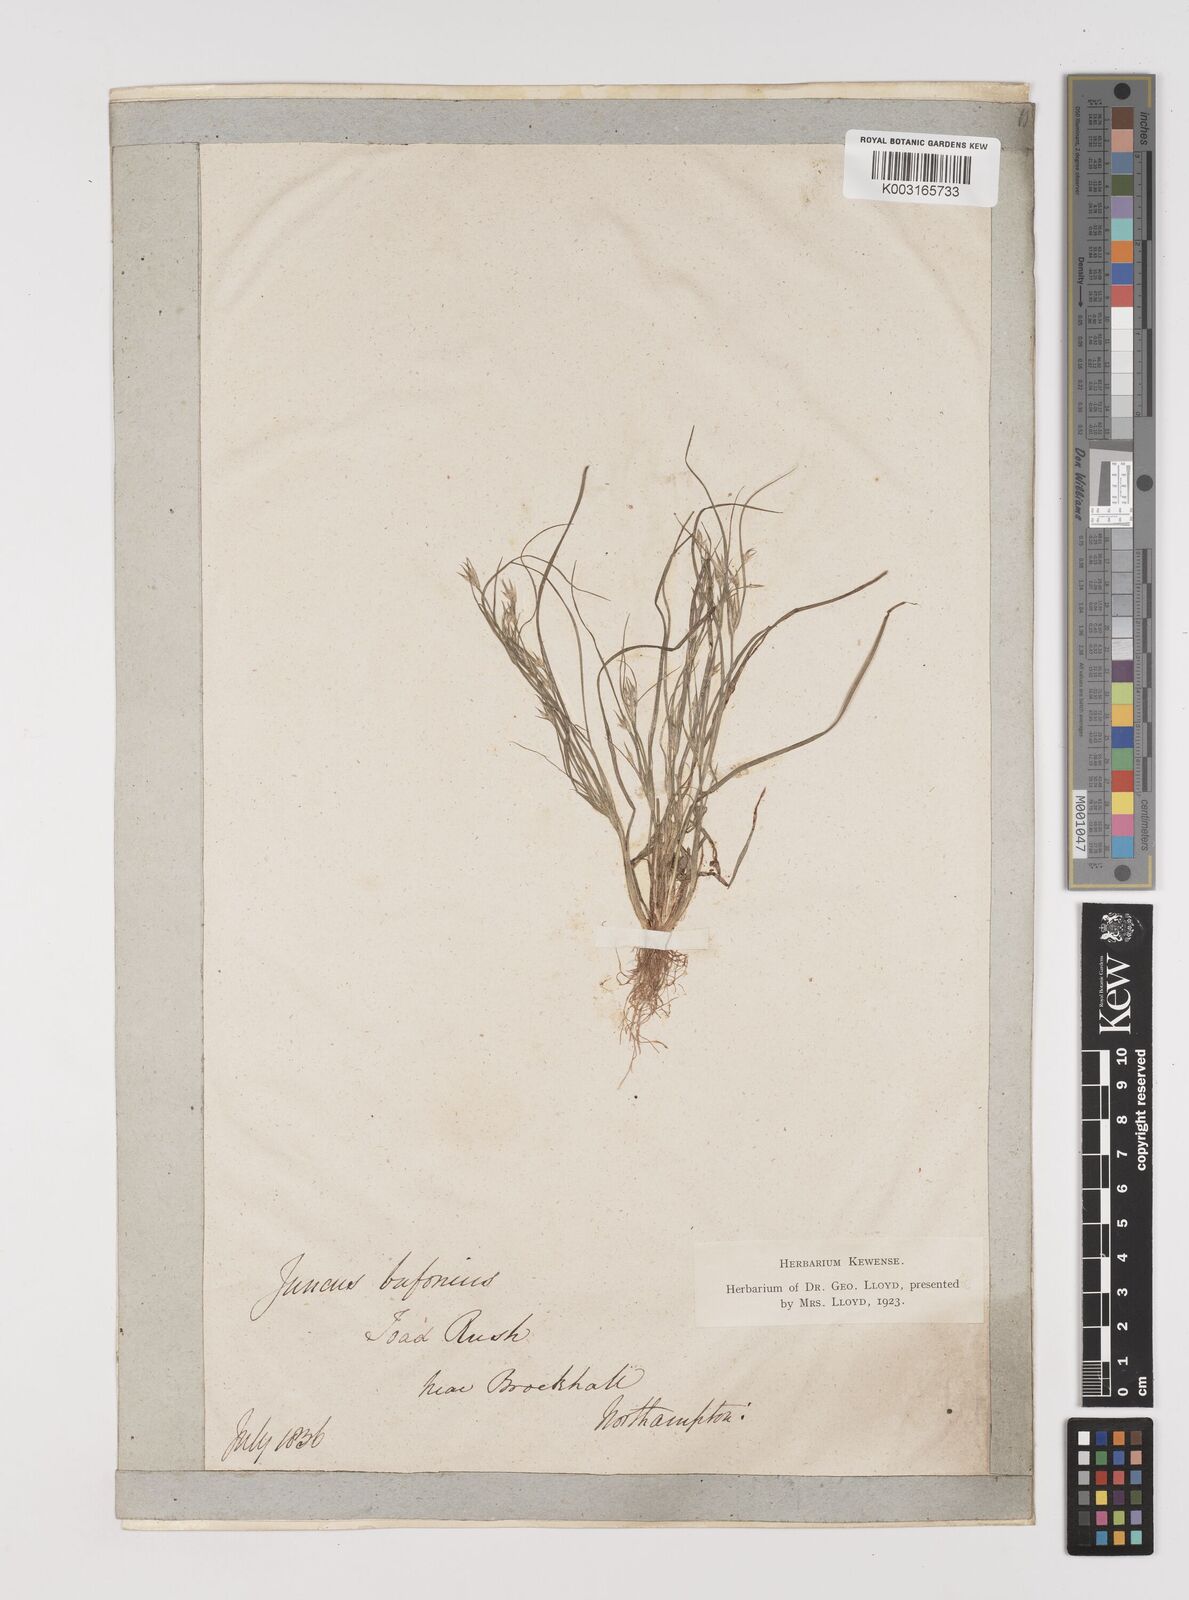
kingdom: Plantae
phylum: Tracheophyta
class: Liliopsida
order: Poales
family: Juncaceae
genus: Juncus
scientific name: Juncus bufonius
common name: Toad rush
